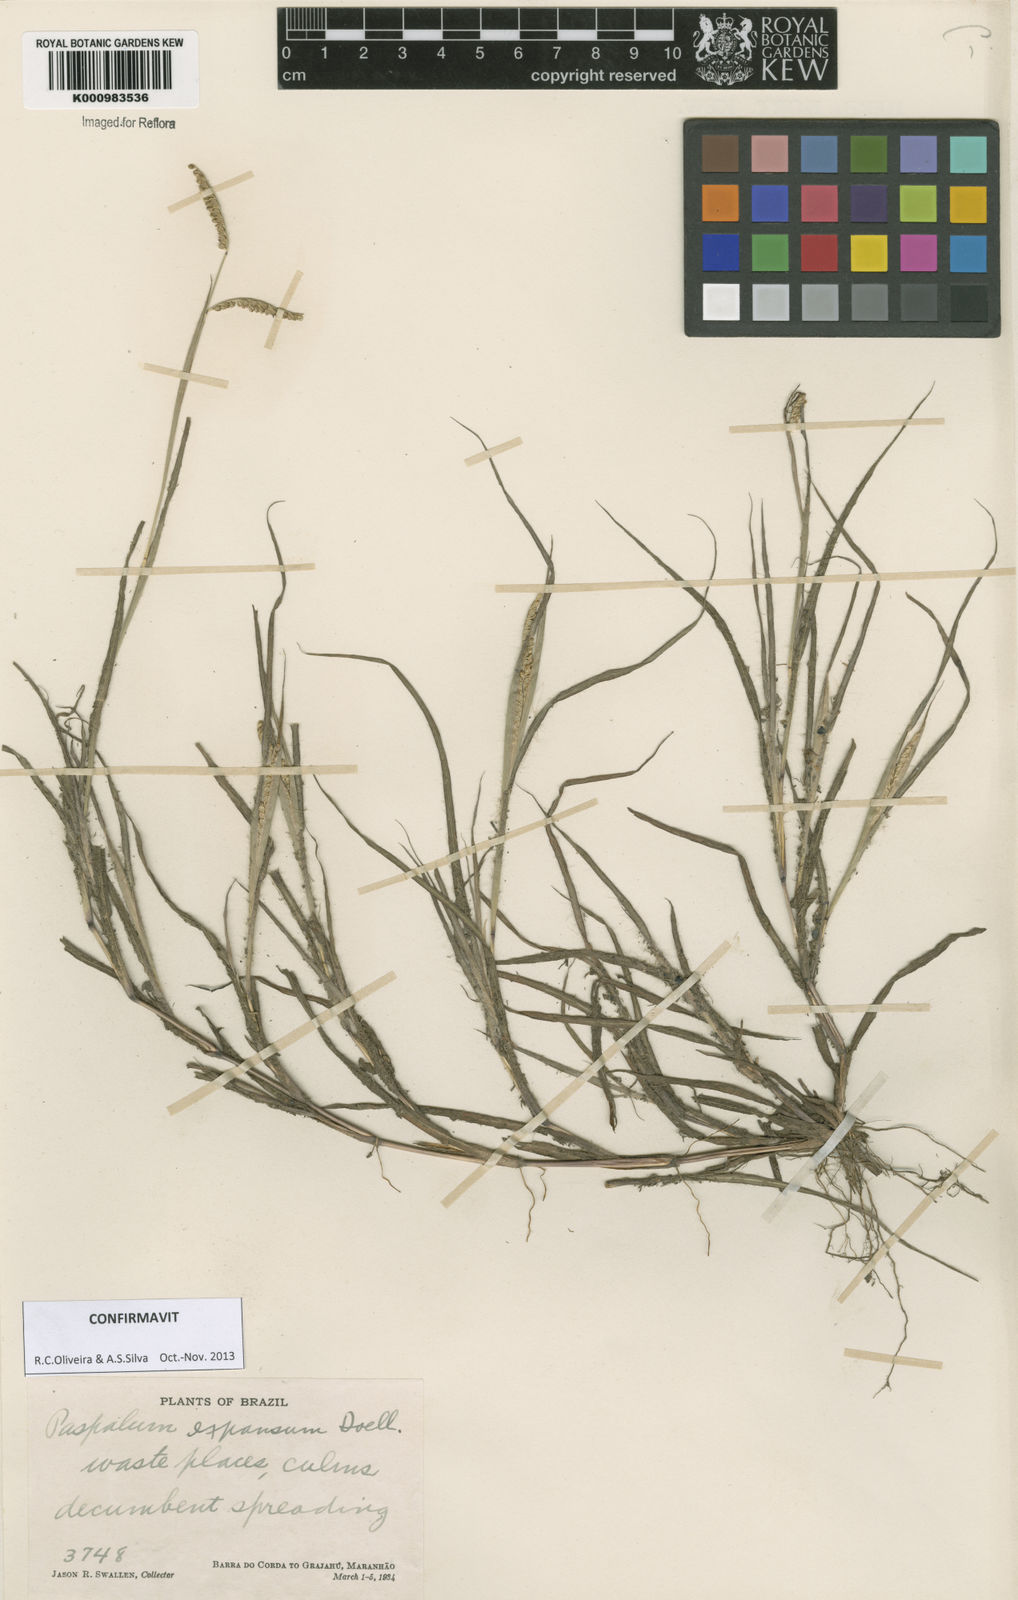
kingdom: Plantae
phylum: Tracheophyta
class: Liliopsida
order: Poales
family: Poaceae
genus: Paspalum
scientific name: Paspalum
